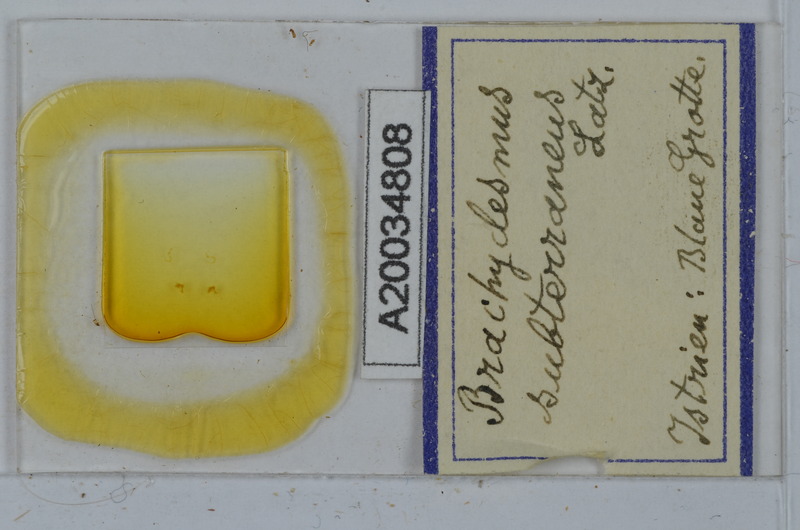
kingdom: Animalia
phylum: Arthropoda
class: Diplopoda
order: Polydesmida
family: Polydesmidae
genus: Brachydesmus
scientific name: Brachydesmus subterraneus
